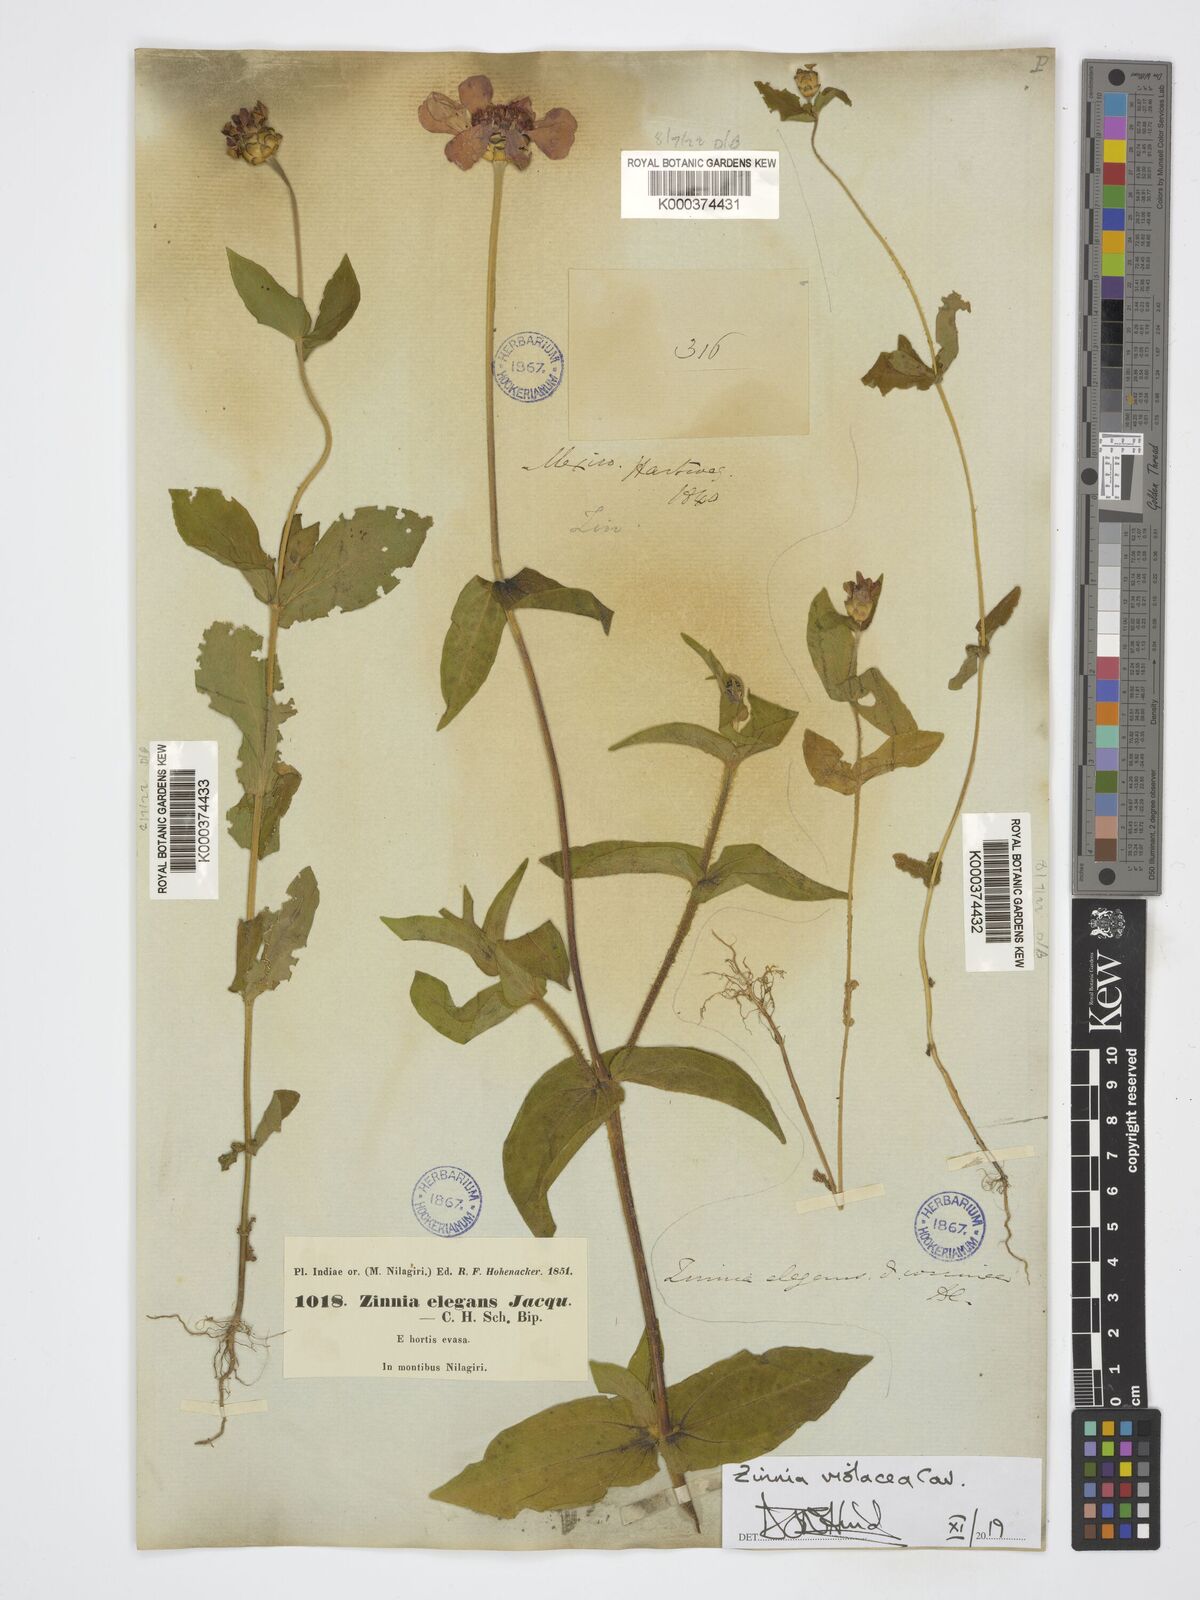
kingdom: Plantae
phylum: Tracheophyta
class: Magnoliopsida
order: Asterales
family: Asteraceae
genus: Zinnia
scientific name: Zinnia elegans
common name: Youth-and-age
